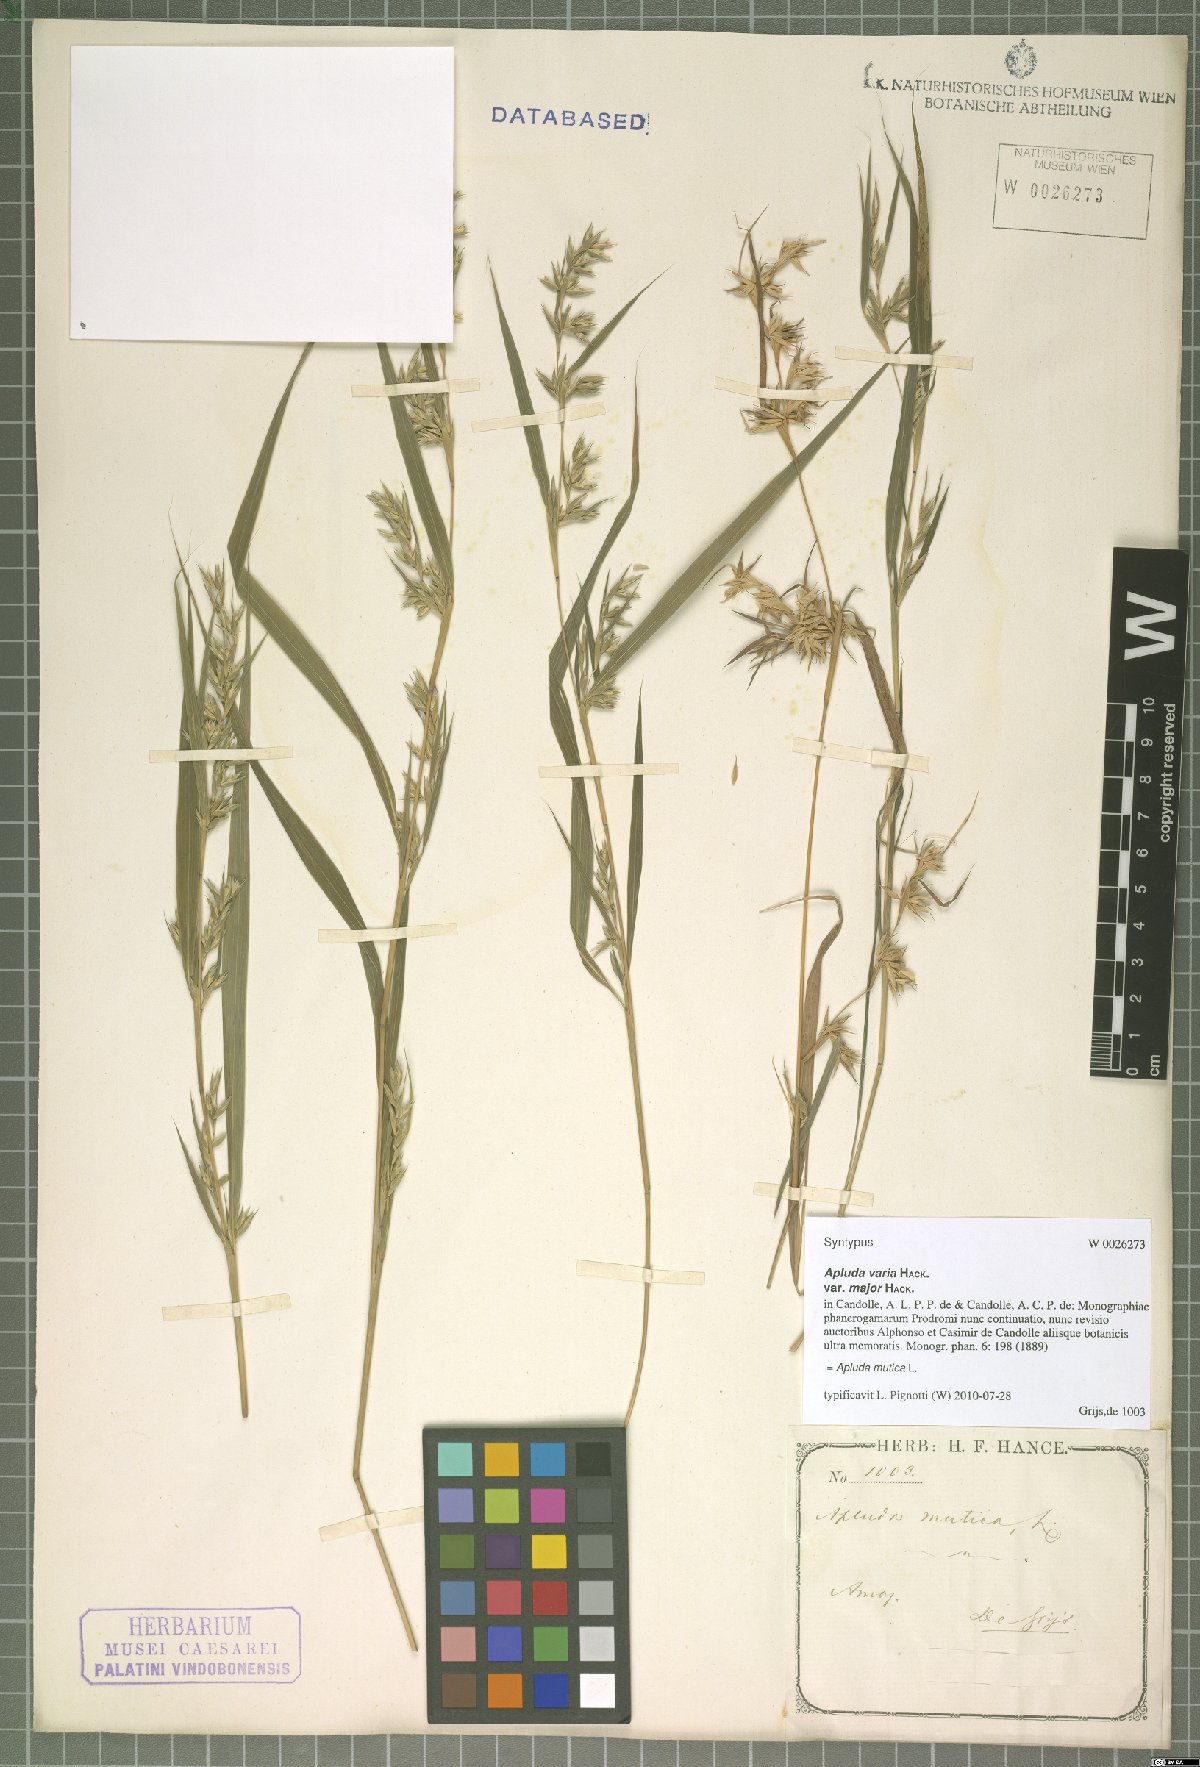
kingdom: Plantae
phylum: Tracheophyta
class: Liliopsida
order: Poales
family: Poaceae
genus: Apluda
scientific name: Apluda mutica
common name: Mauritian grass
